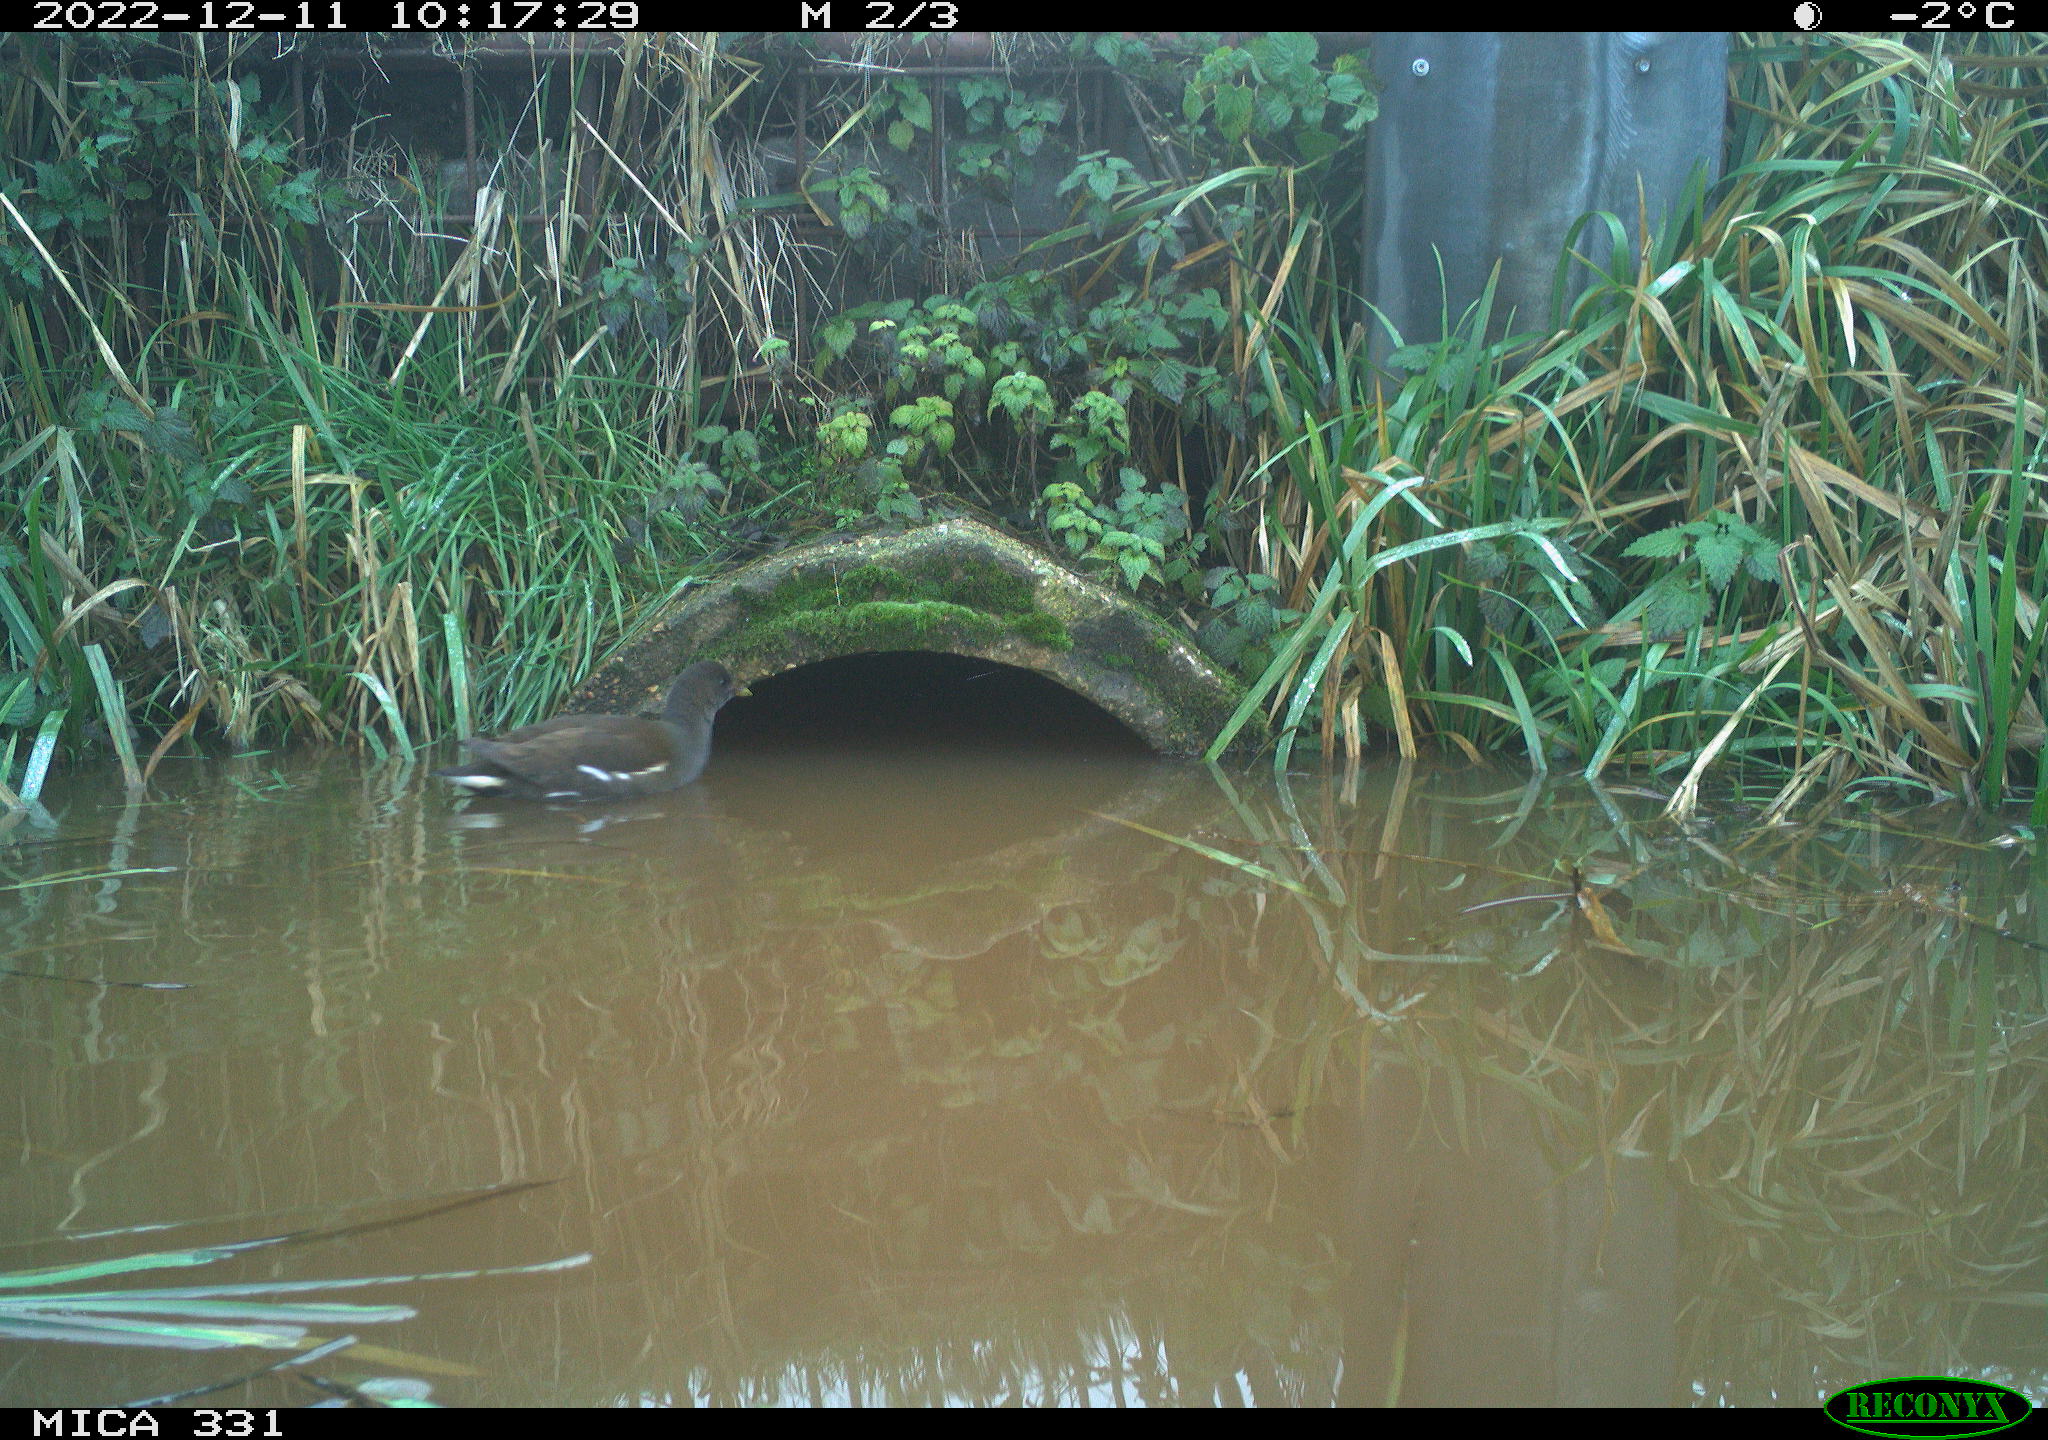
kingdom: Animalia
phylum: Chordata
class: Aves
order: Gruiformes
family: Rallidae
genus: Gallinula
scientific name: Gallinula chloropus
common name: Common moorhen
